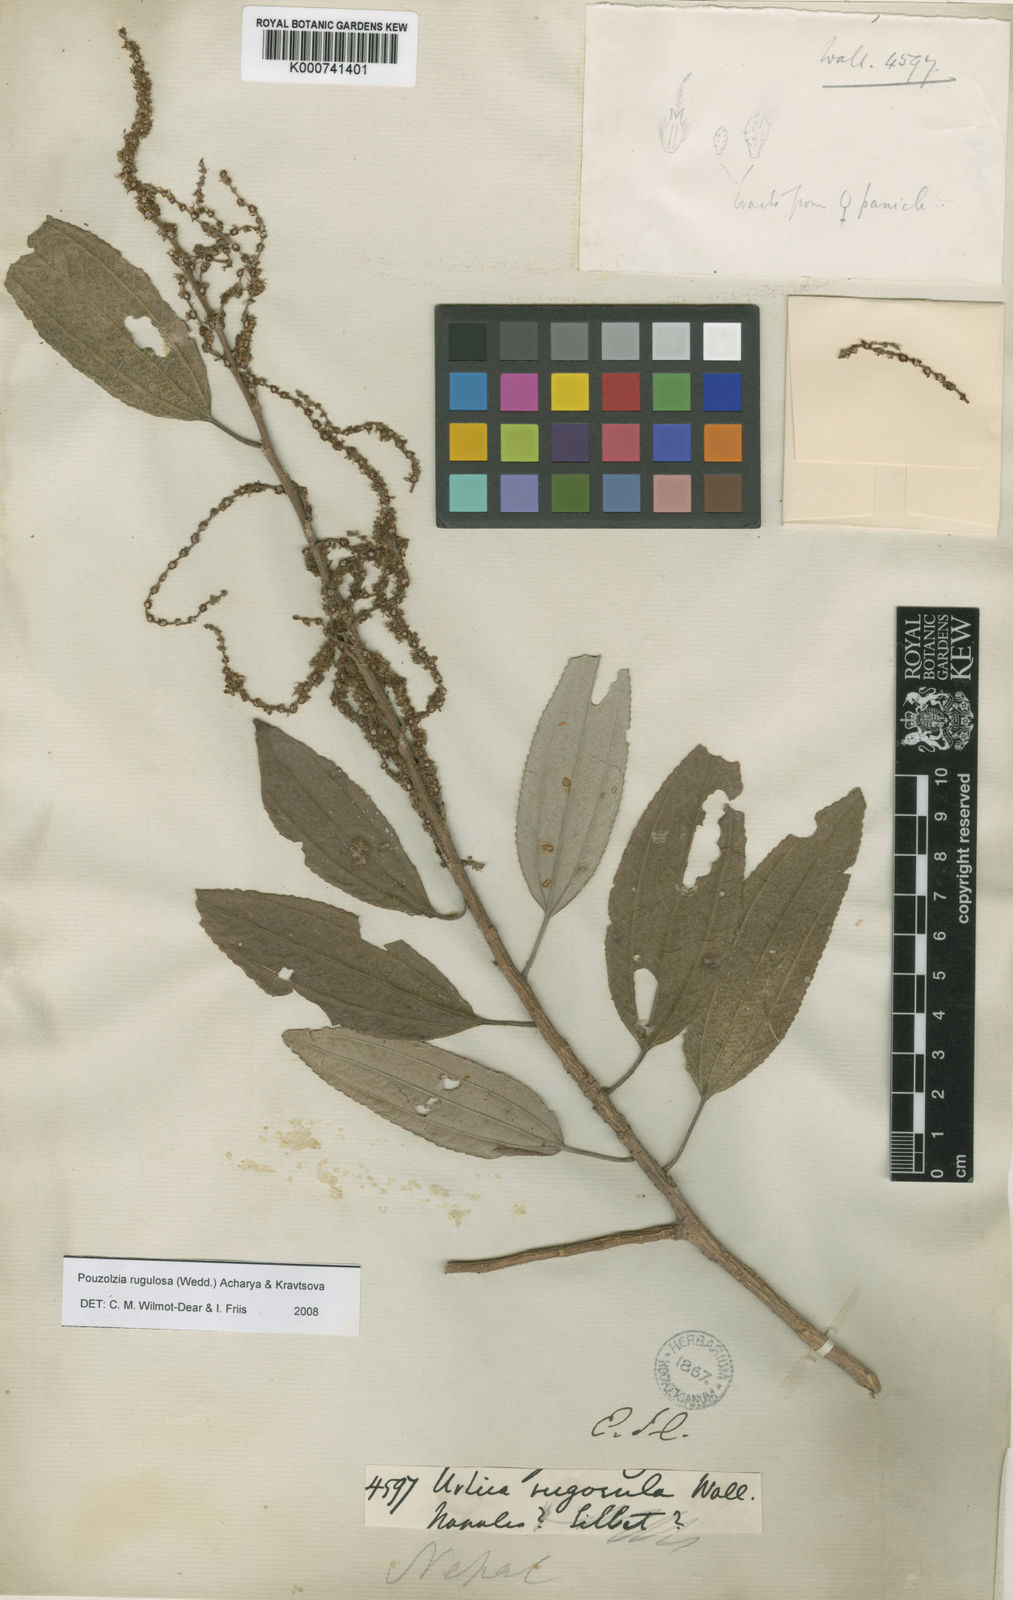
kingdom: Plantae
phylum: Tracheophyta
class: Magnoliopsida
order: Rosales
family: Urticaceae
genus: Pouzolzia
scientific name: Pouzolzia rugulosa
